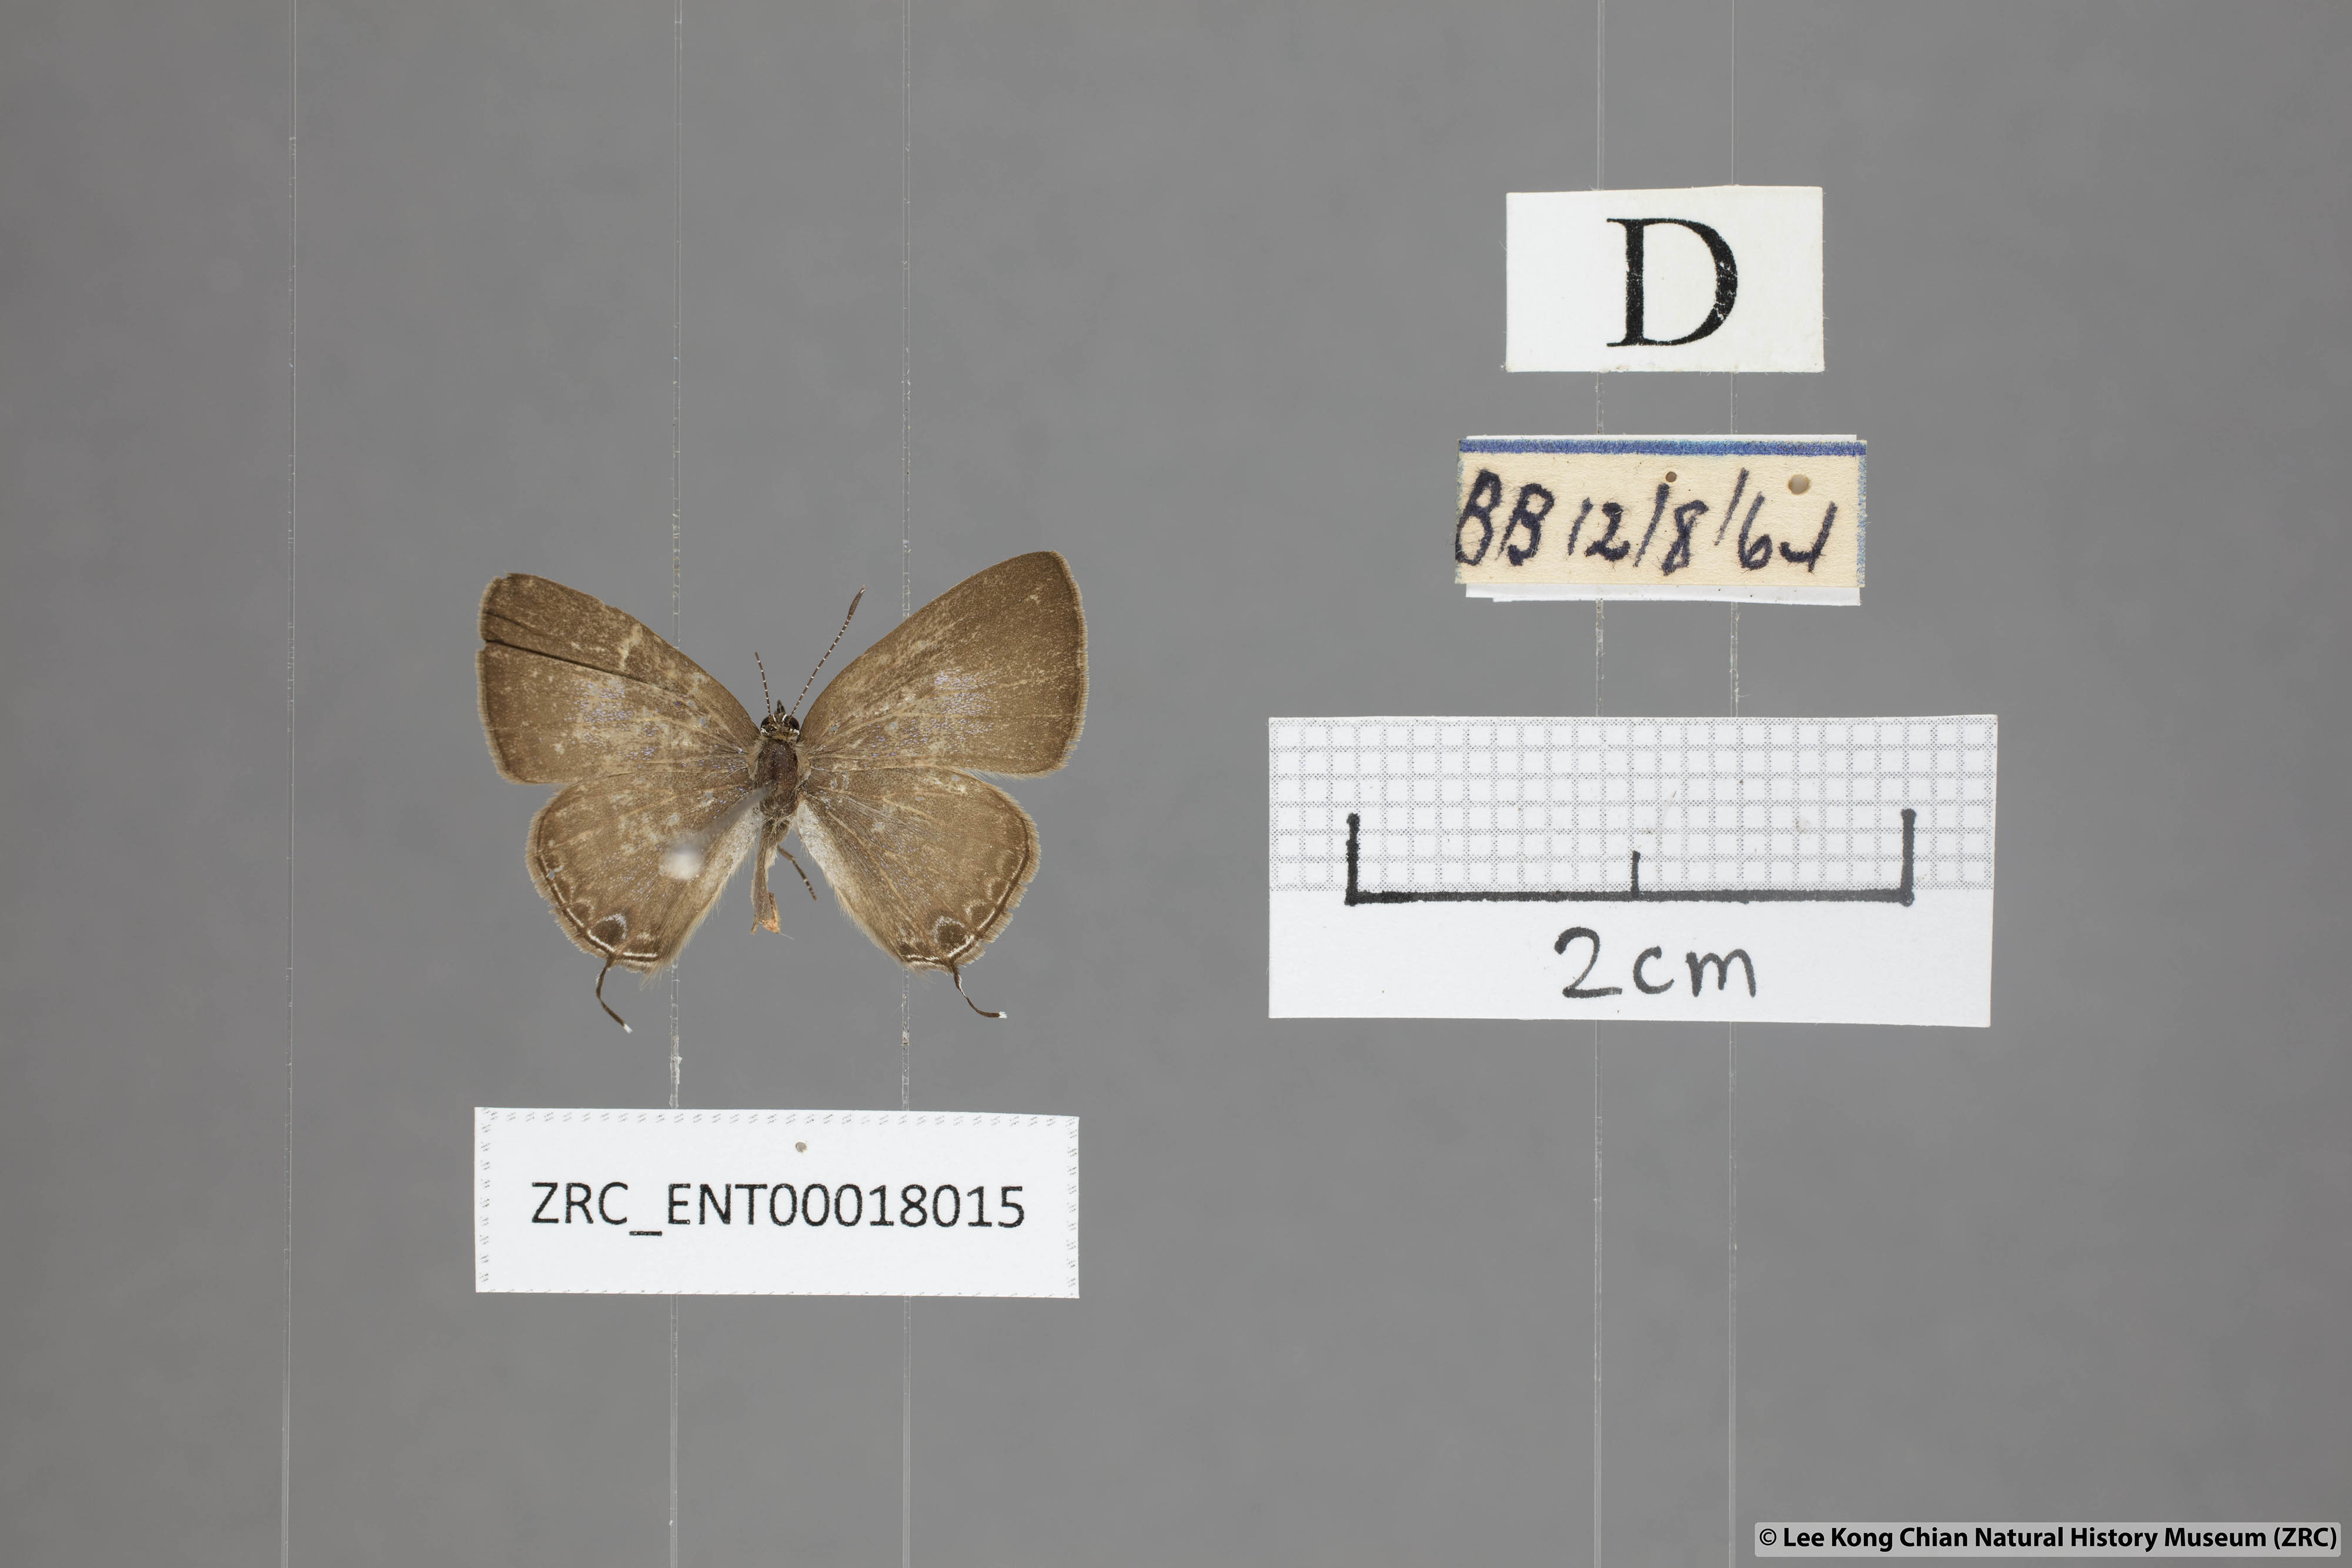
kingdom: Animalia
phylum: Arthropoda
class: Insecta
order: Lepidoptera
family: Lycaenidae
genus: Ionolyce
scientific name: Ionolyce helicon
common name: Pointed line blue
